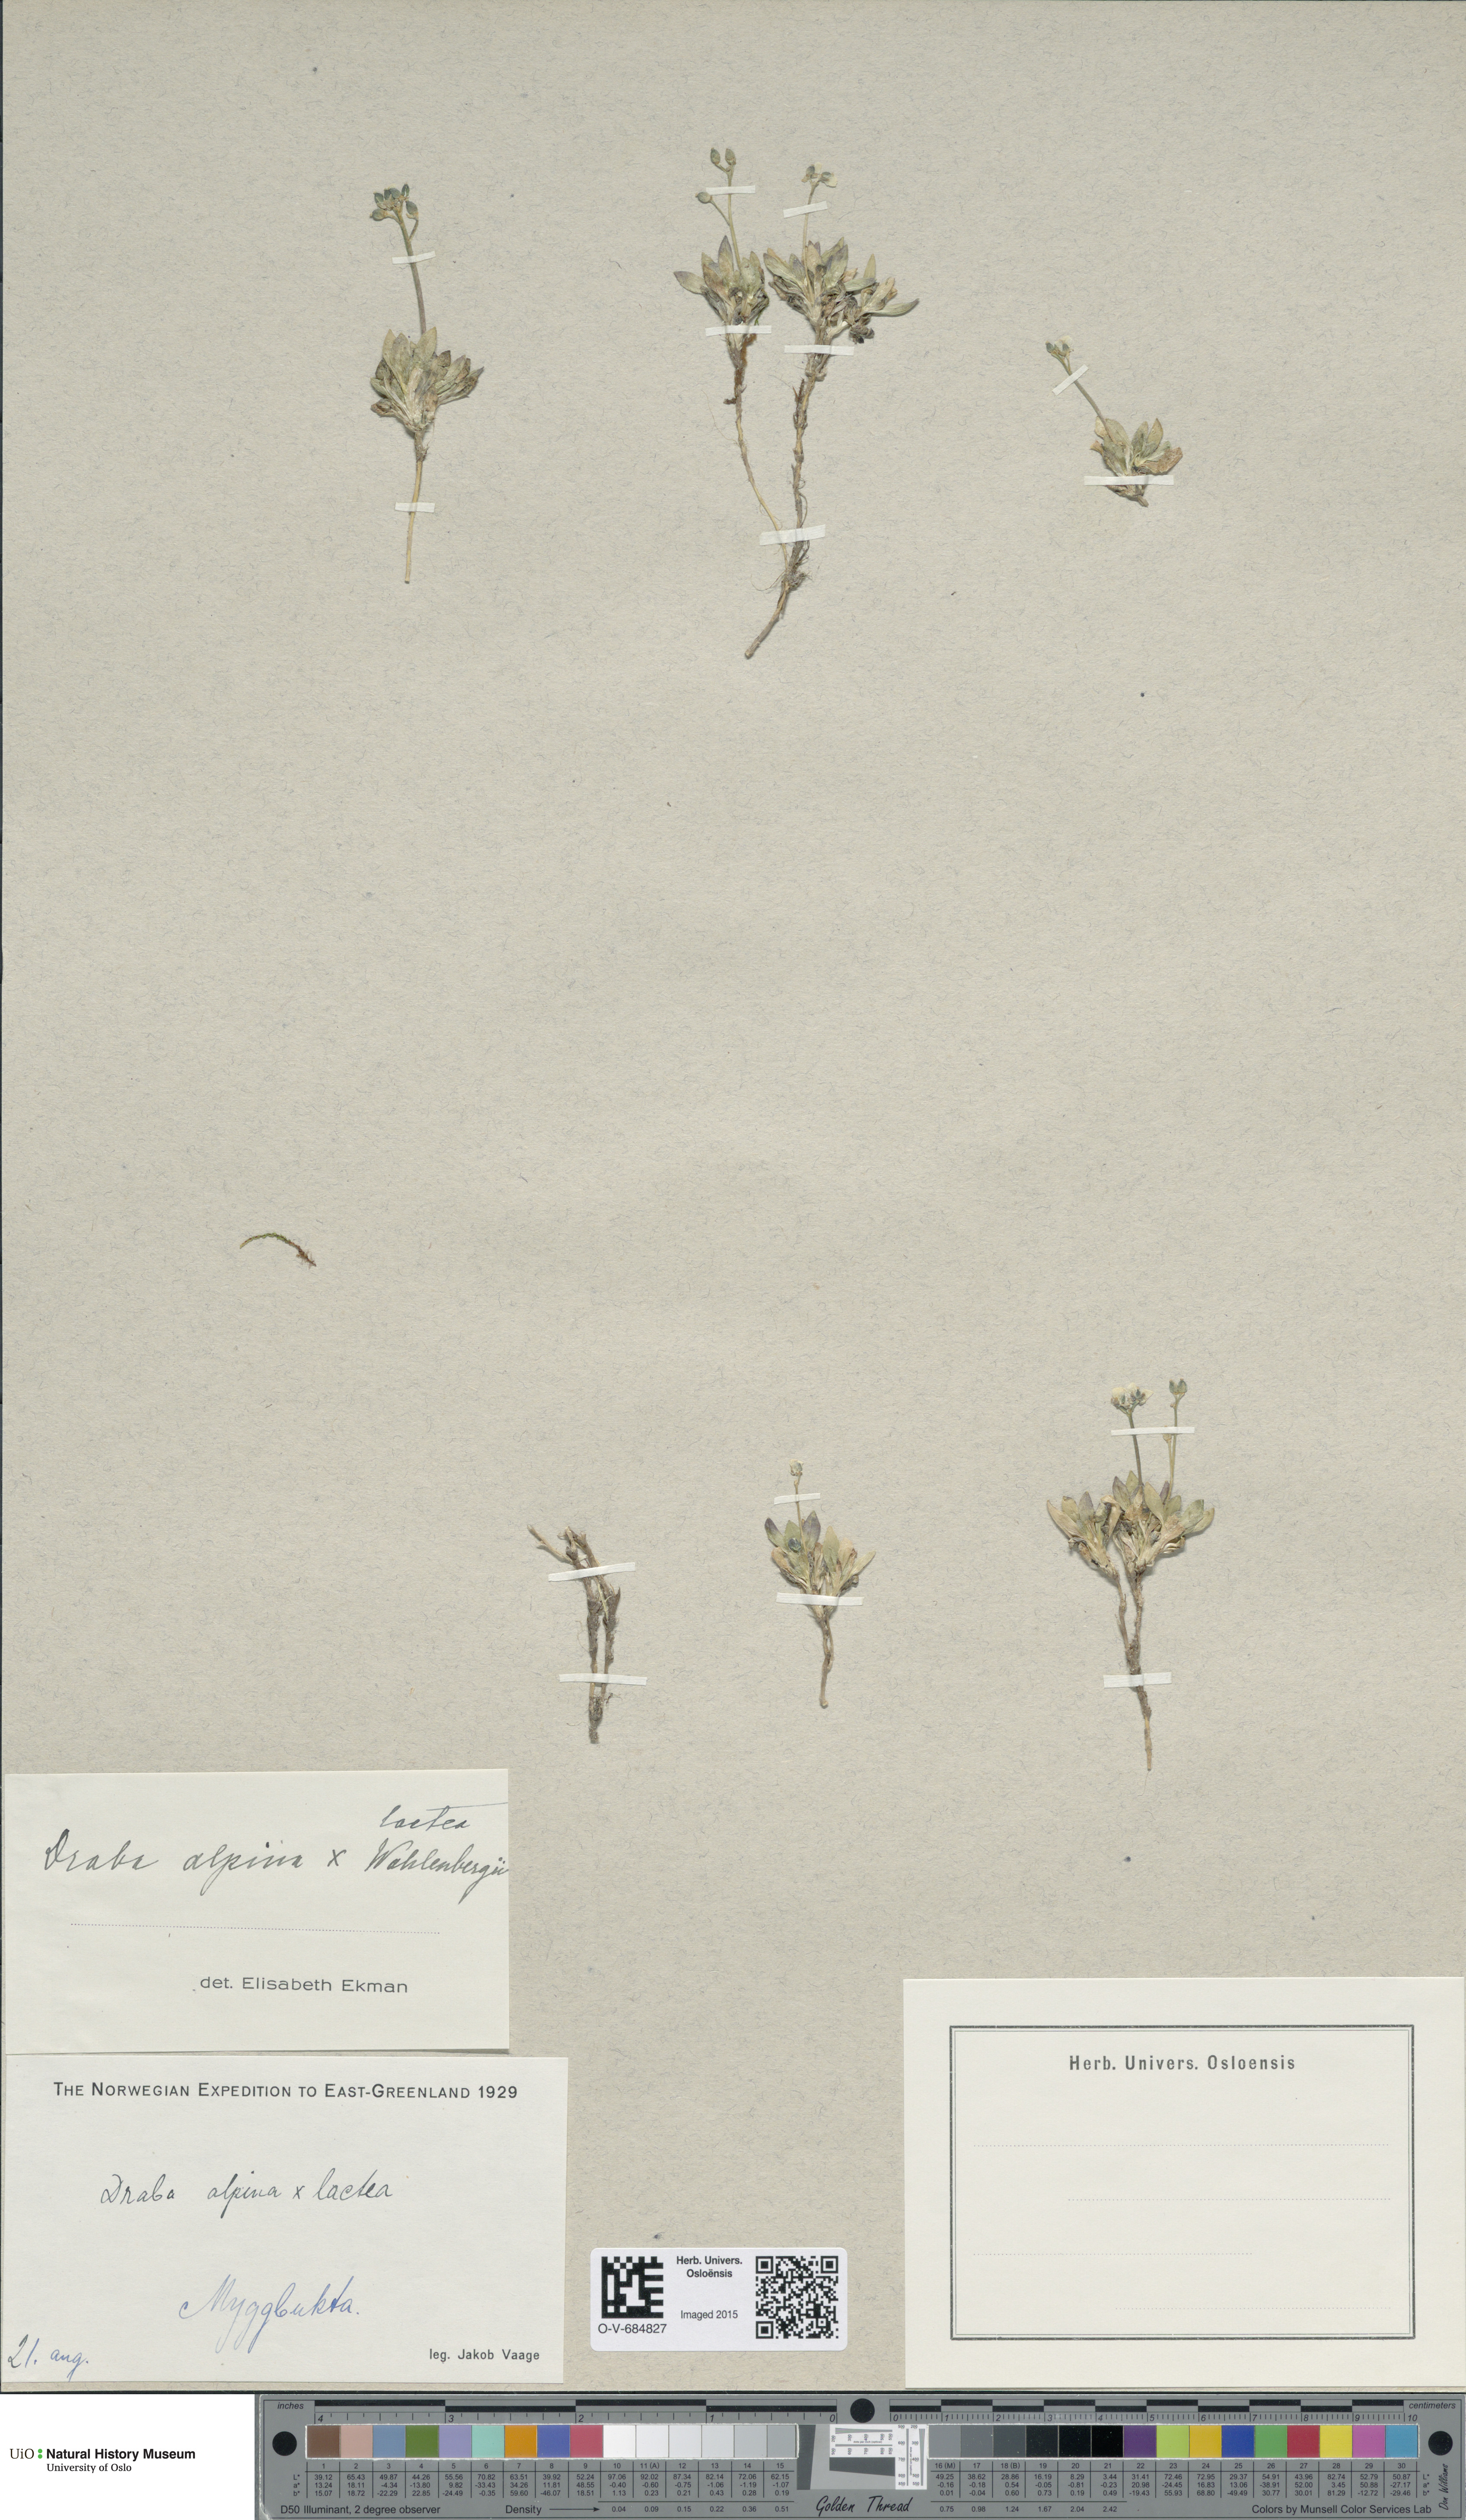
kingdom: Plantae
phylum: Tracheophyta
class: Magnoliopsida
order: Brassicales
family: Brassicaceae
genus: Draba
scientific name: Draba
